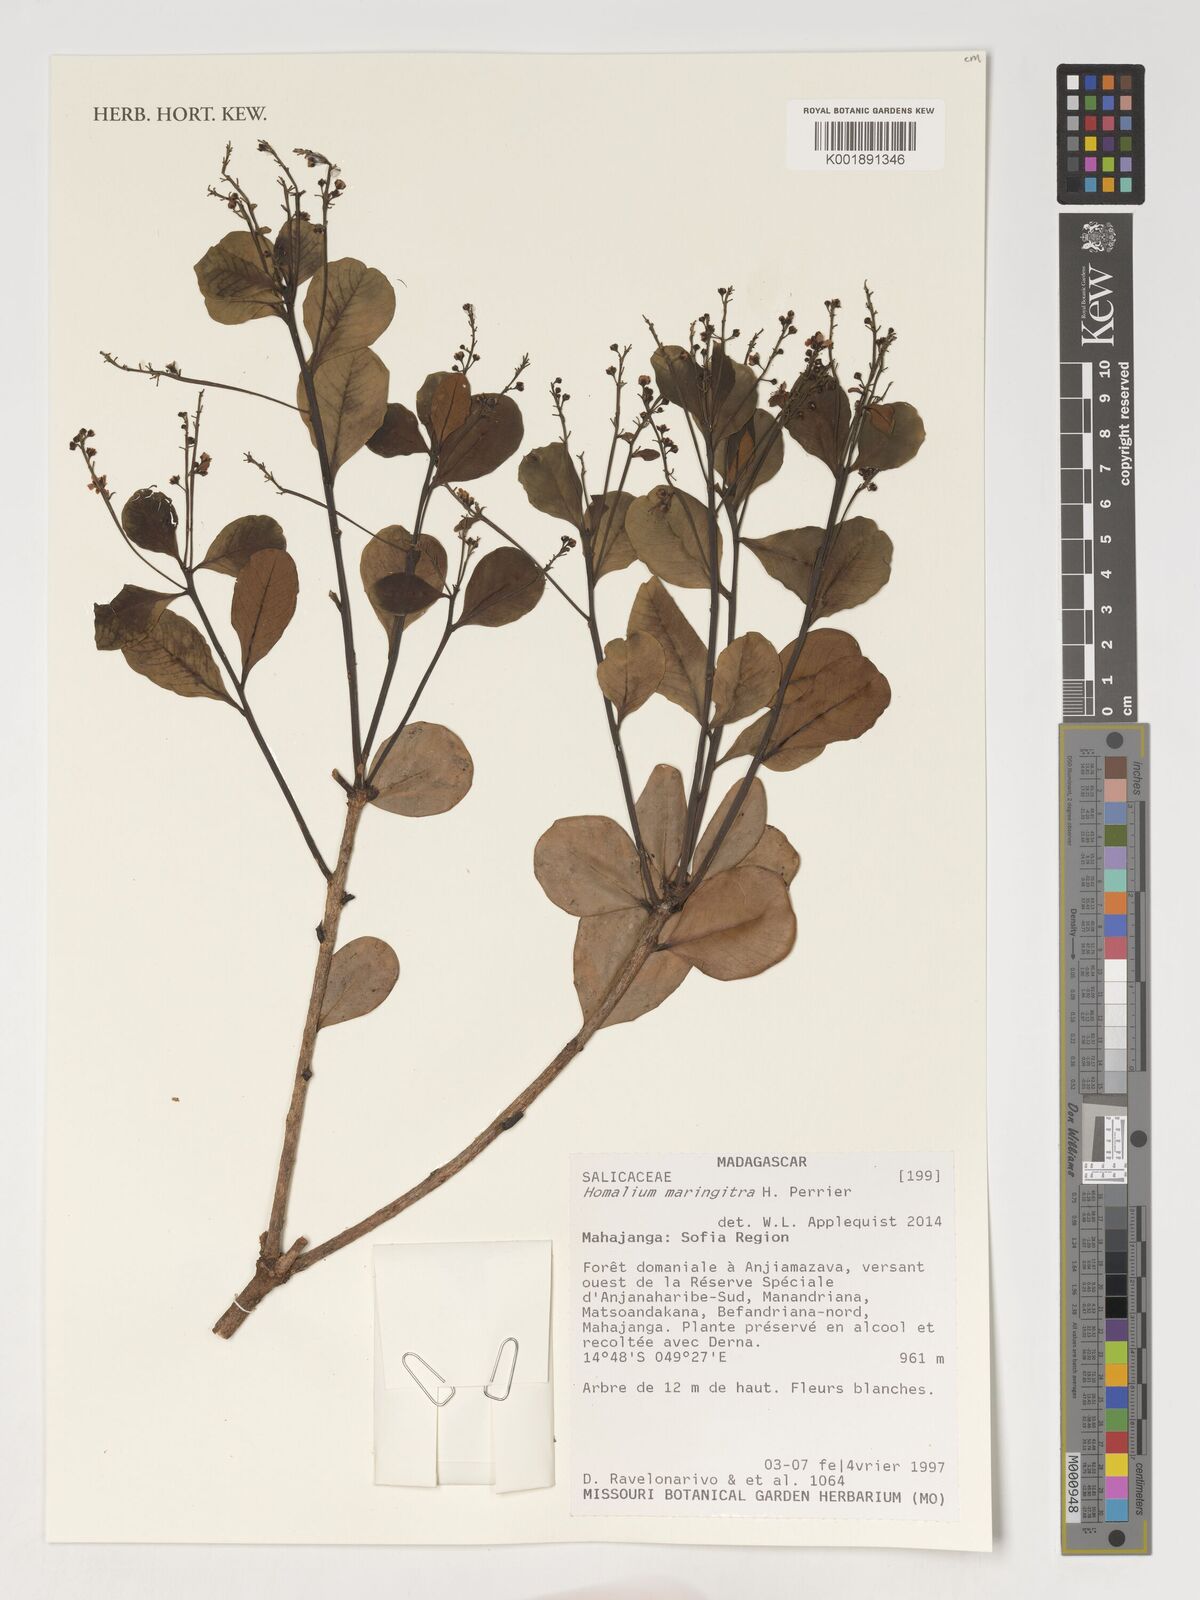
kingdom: Plantae
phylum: Tracheophyta
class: Magnoliopsida
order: Malpighiales
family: Salicaceae
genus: Homalium
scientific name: Homalium maringitra
